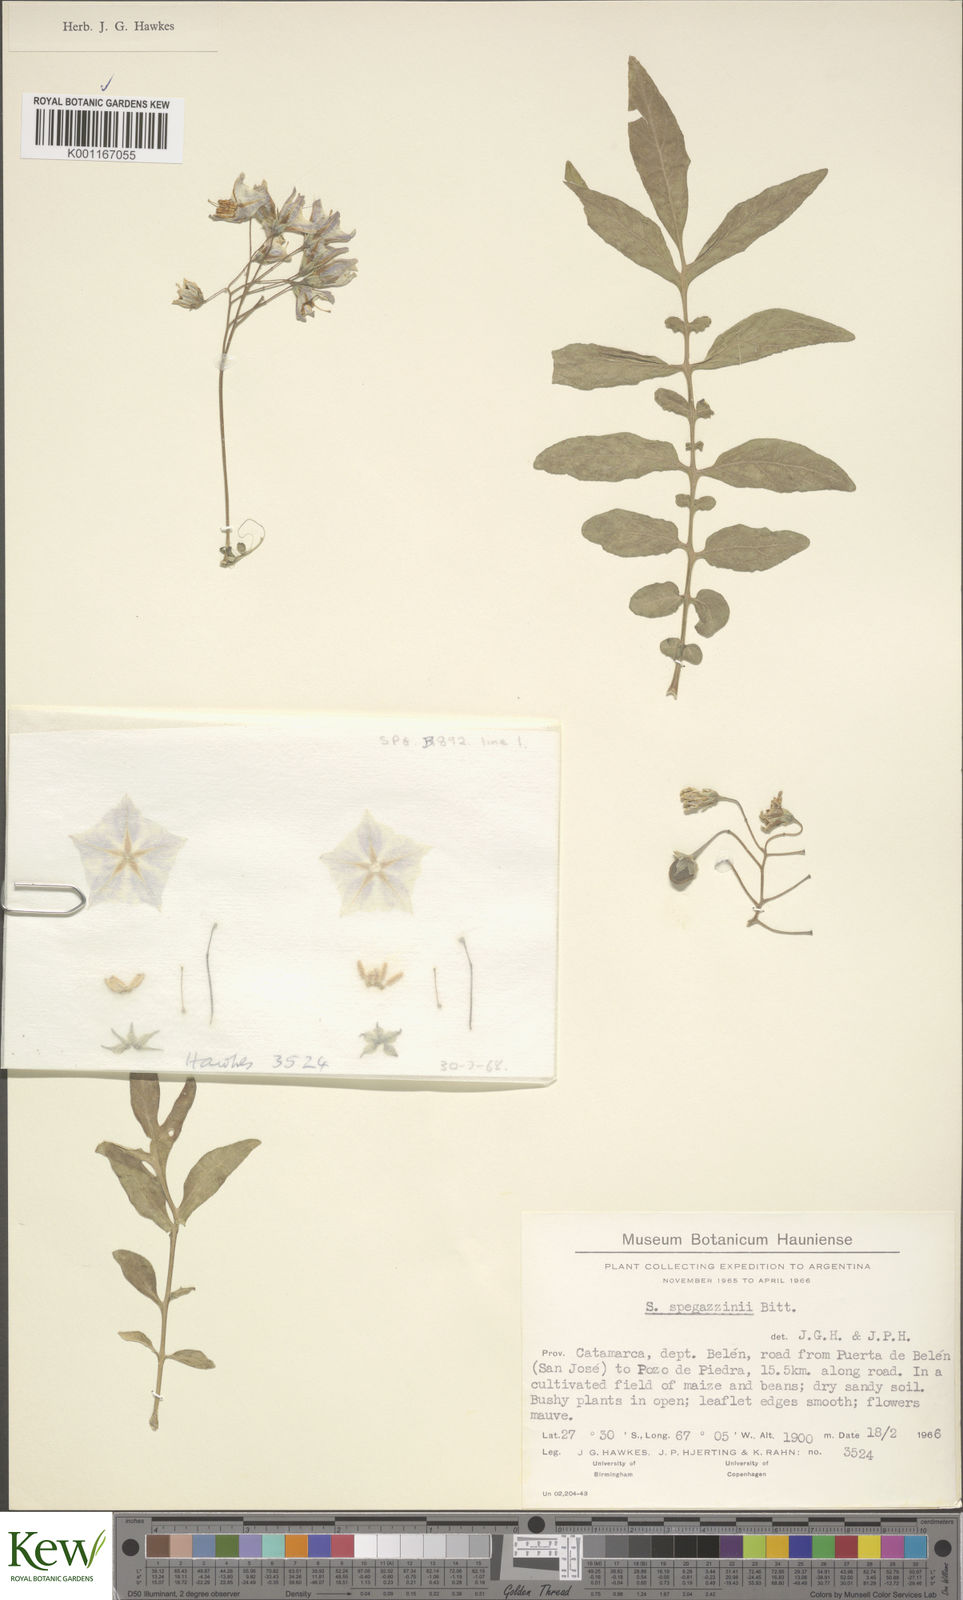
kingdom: Plantae
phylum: Tracheophyta
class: Magnoliopsida
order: Solanales
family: Solanaceae
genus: Solanum
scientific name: Solanum brevicaule
